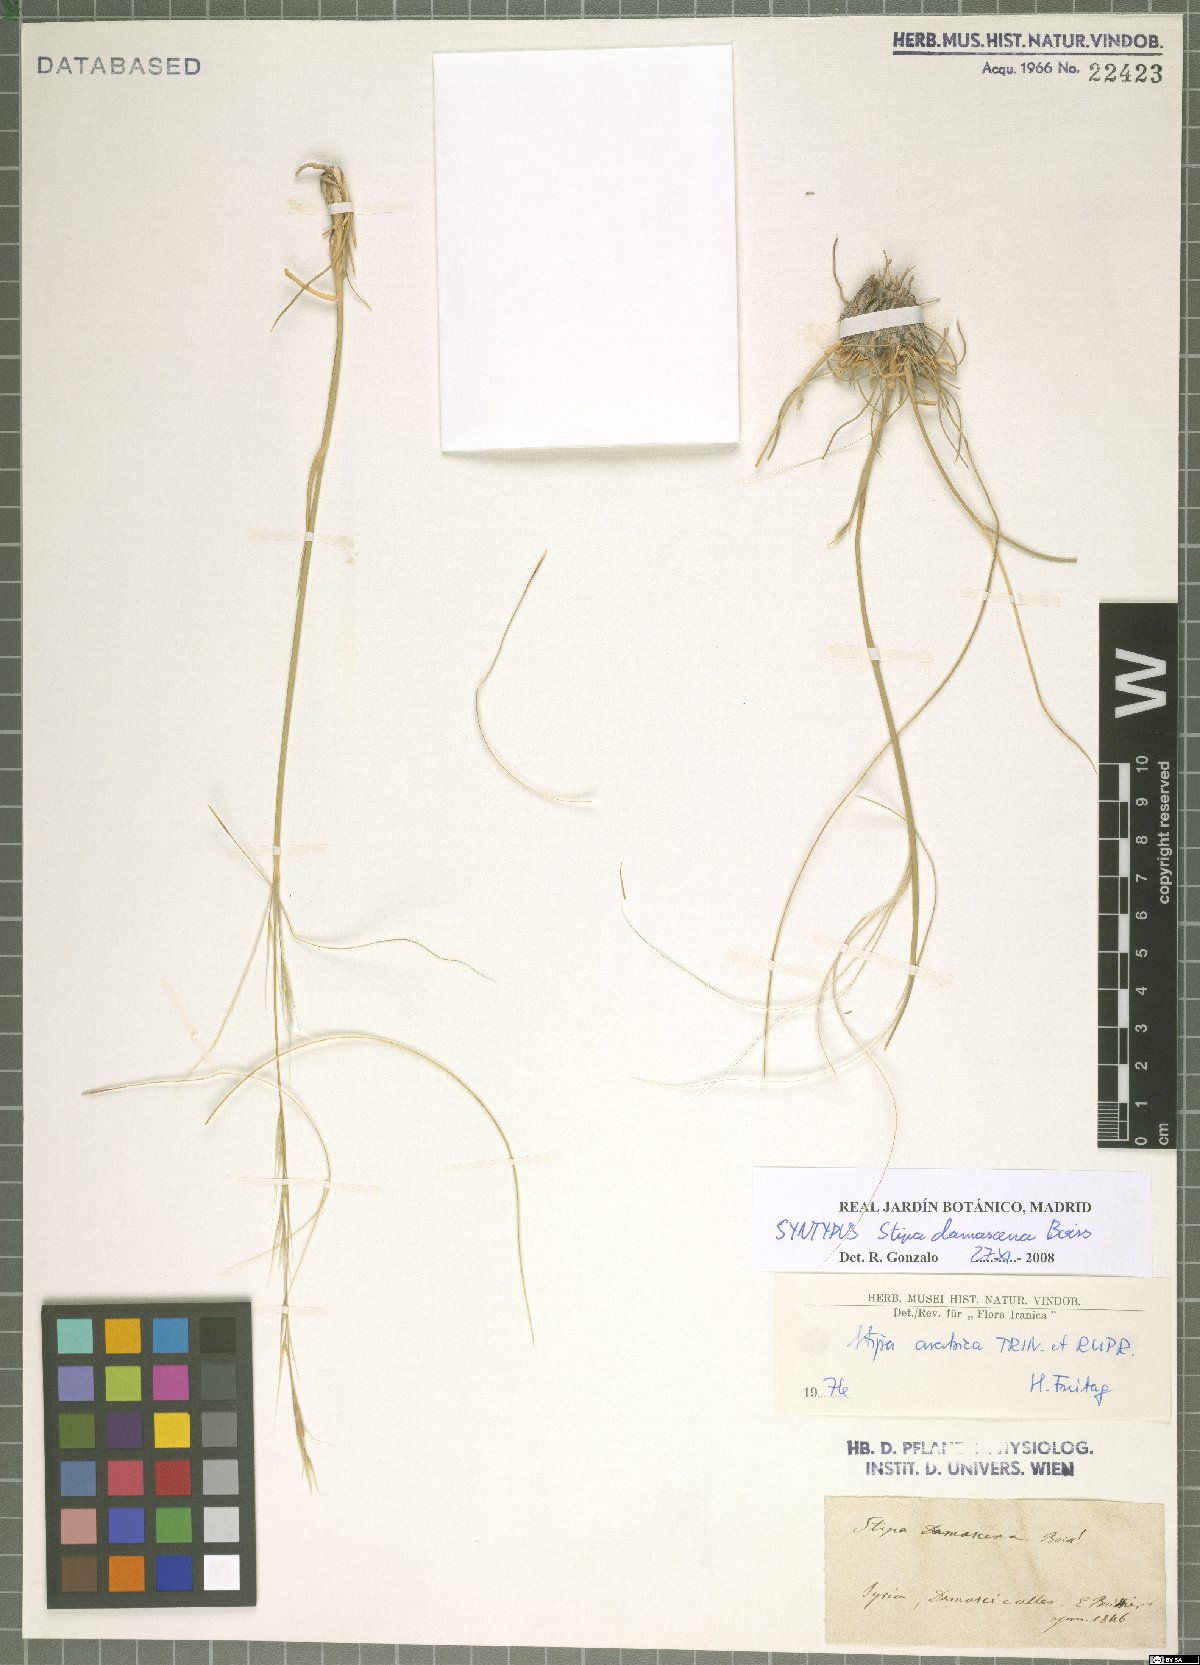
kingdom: Plantae
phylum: Tracheophyta
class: Liliopsida
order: Poales
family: Poaceae
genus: Stipa
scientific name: Stipa arabica
